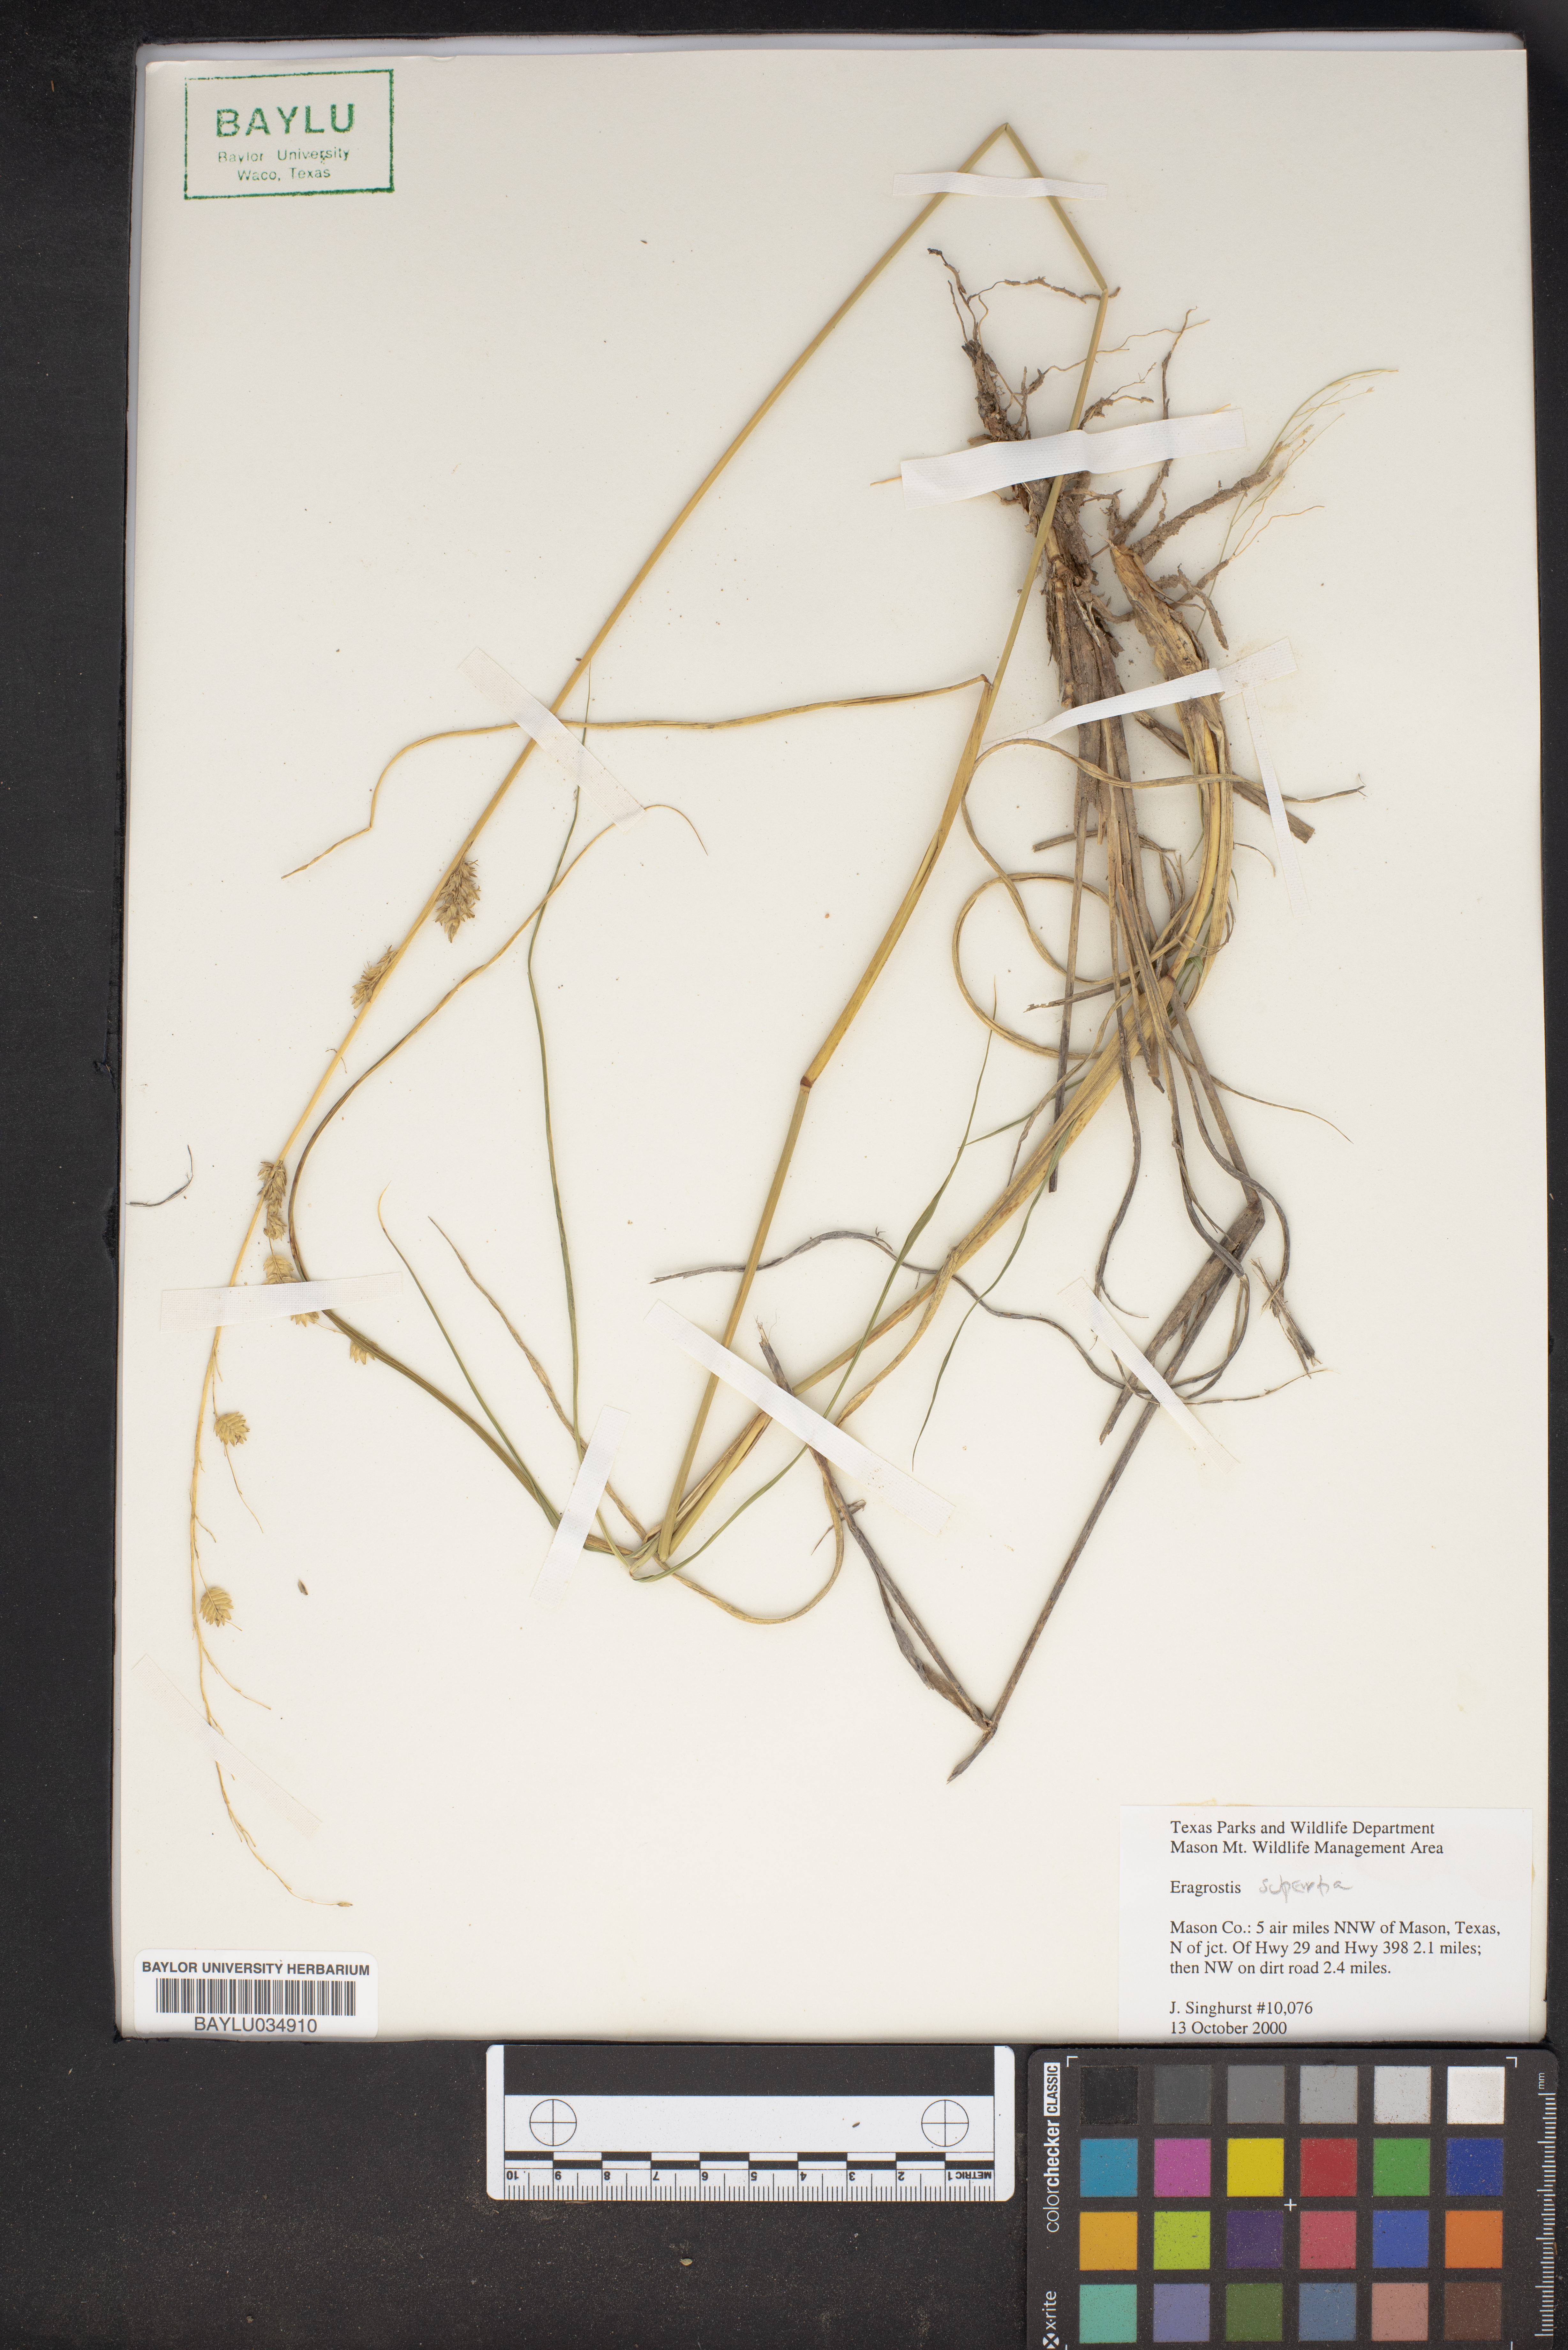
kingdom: Plantae
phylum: Tracheophyta
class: Liliopsida
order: Poales
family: Poaceae
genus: Eragrostis
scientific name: Eragrostis superba
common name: Wilman lovegrass
